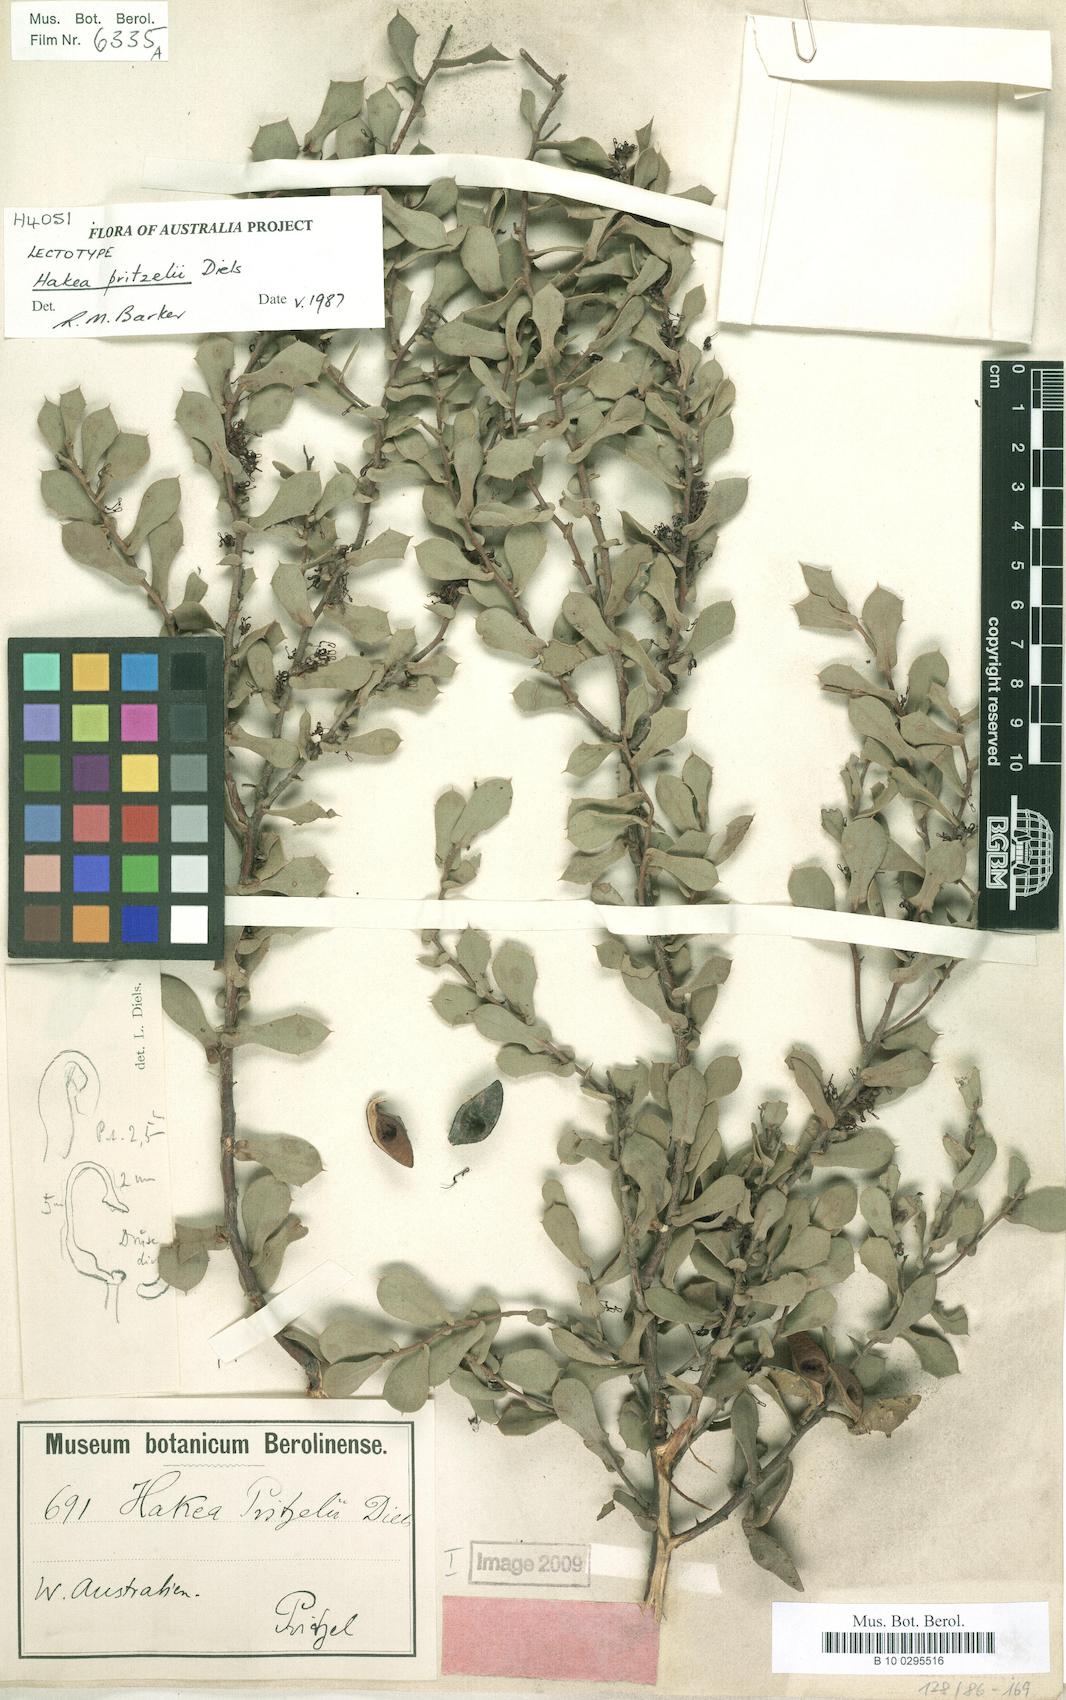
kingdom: Plantae
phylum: Tracheophyta
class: Magnoliopsida
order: Proteales
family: Proteaceae
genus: Hakea
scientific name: Hakea pritzelii
